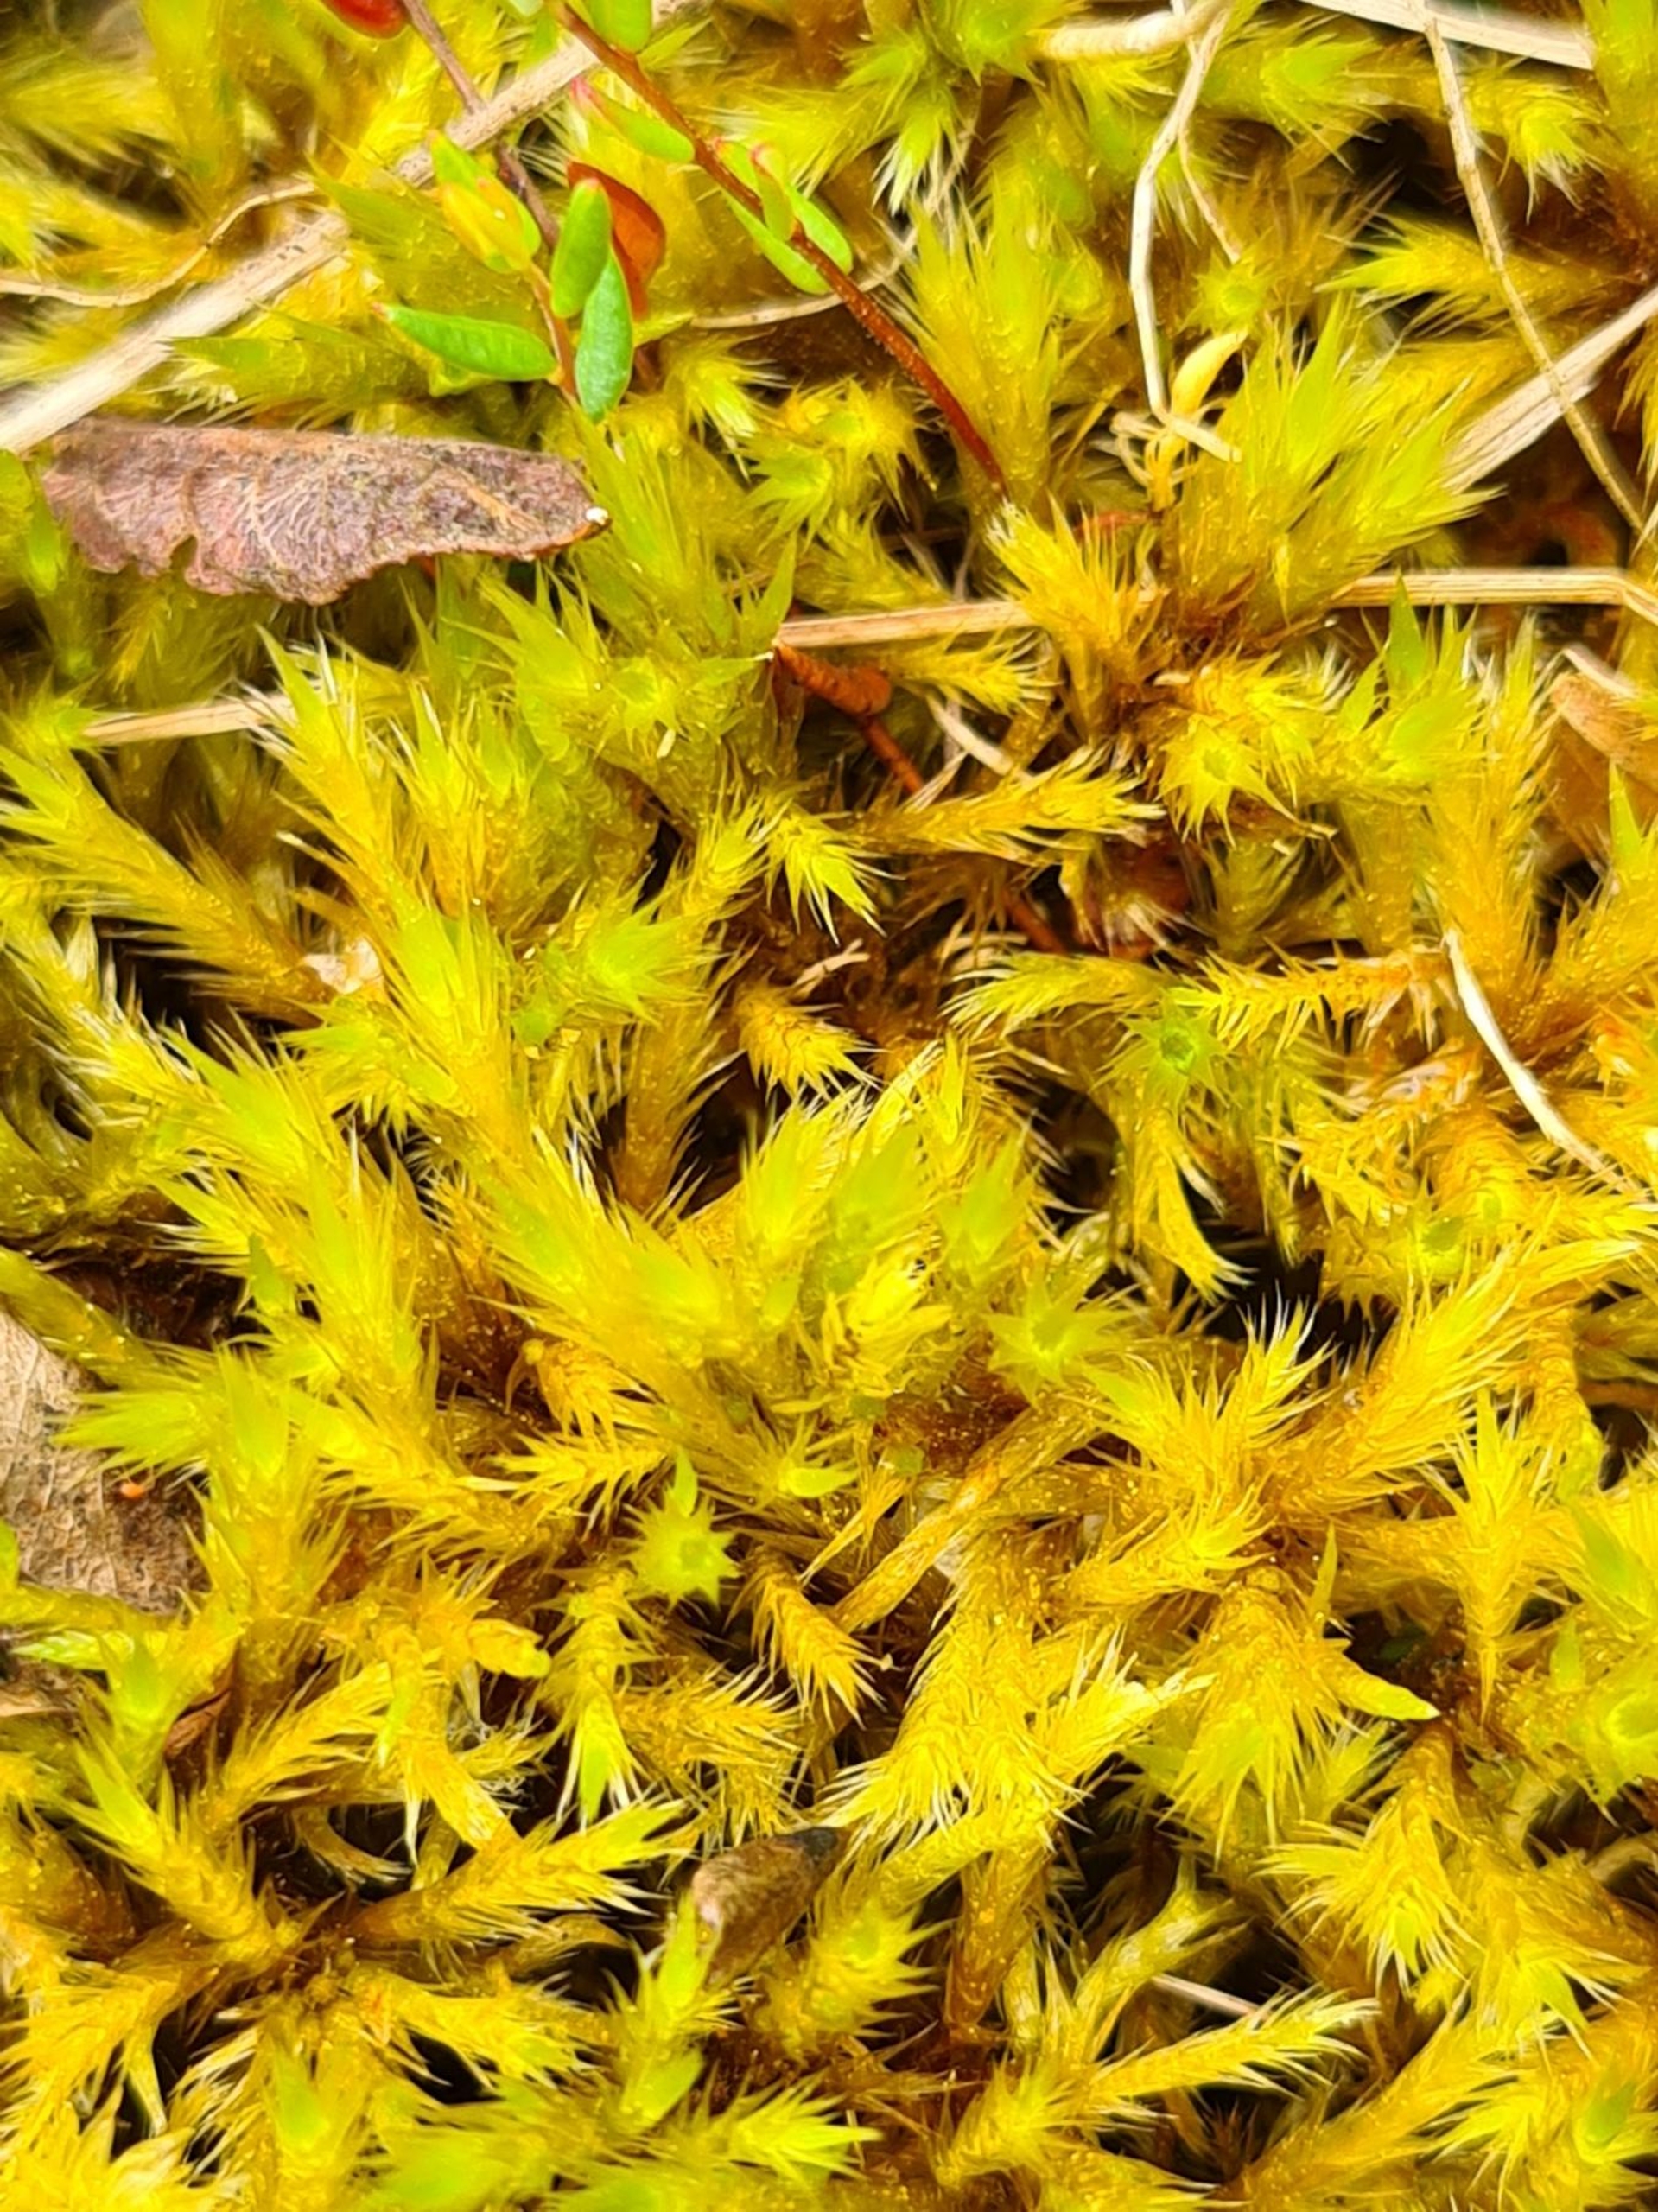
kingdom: Plantae
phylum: Bryophyta
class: Bryopsida
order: Hypnales
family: Amblystegiaceae
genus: Tomentypnum
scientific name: Tomentypnum nitens
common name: Glinsende kærmos
